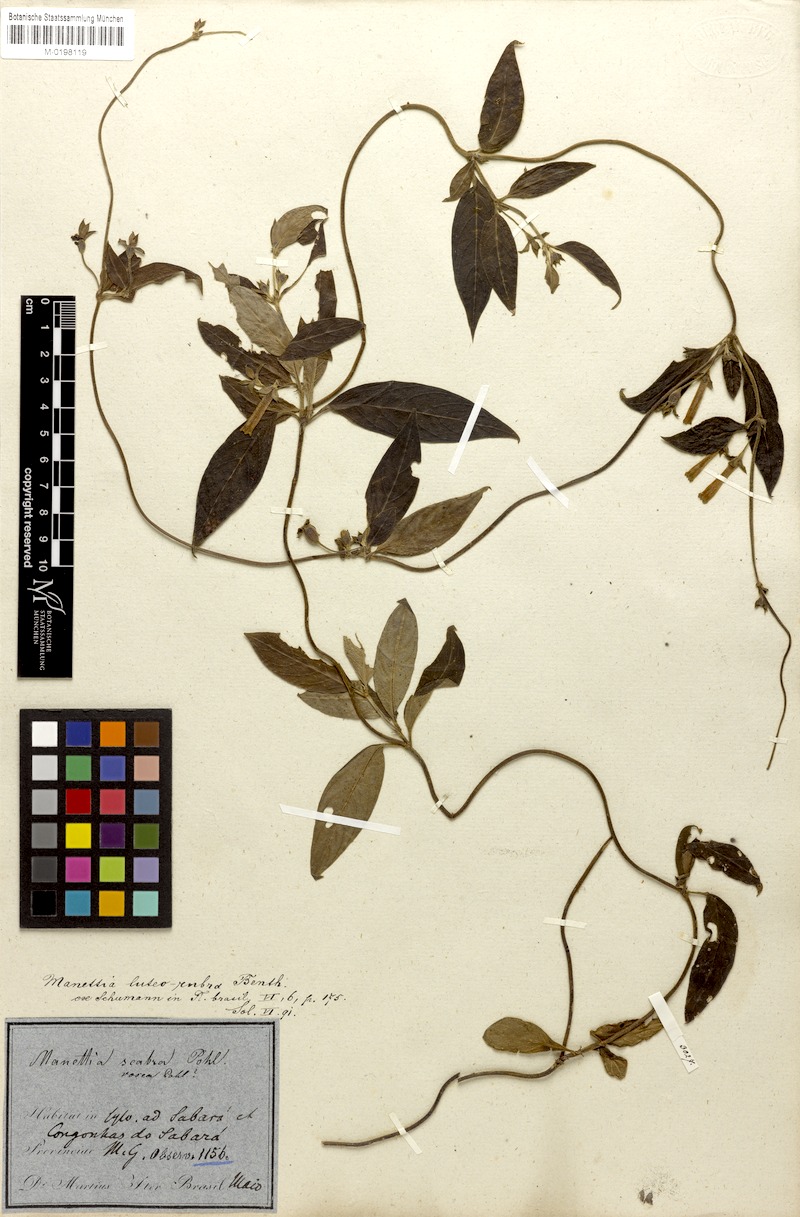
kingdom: Plantae
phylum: Tracheophyta
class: Magnoliopsida
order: Gentianales
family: Rubiaceae
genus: Manettia
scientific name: Manettia luteorubra
